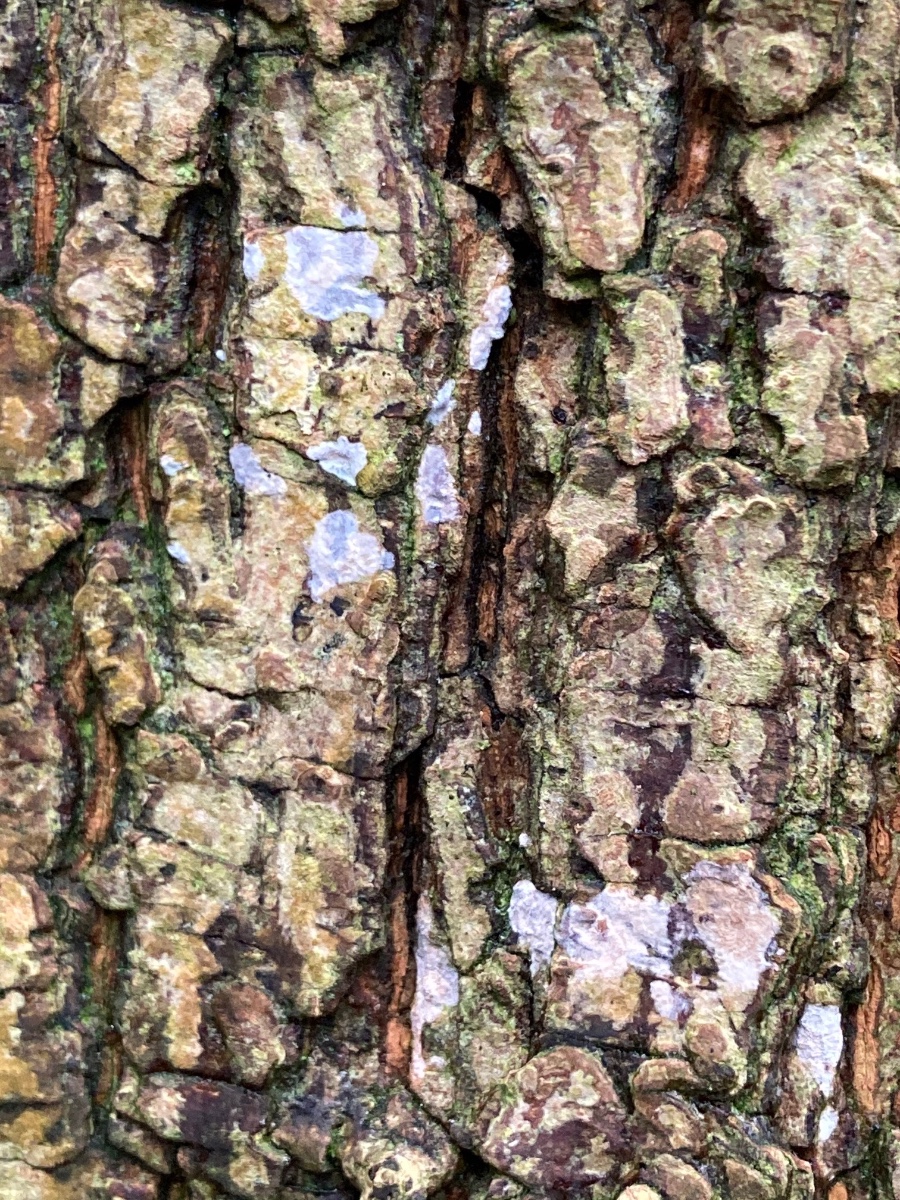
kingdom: Fungi
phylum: Basidiomycota
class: Agaricomycetes
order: Agaricales
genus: Dendrothele
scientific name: Dendrothele acerina
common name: navr-kalkplet
